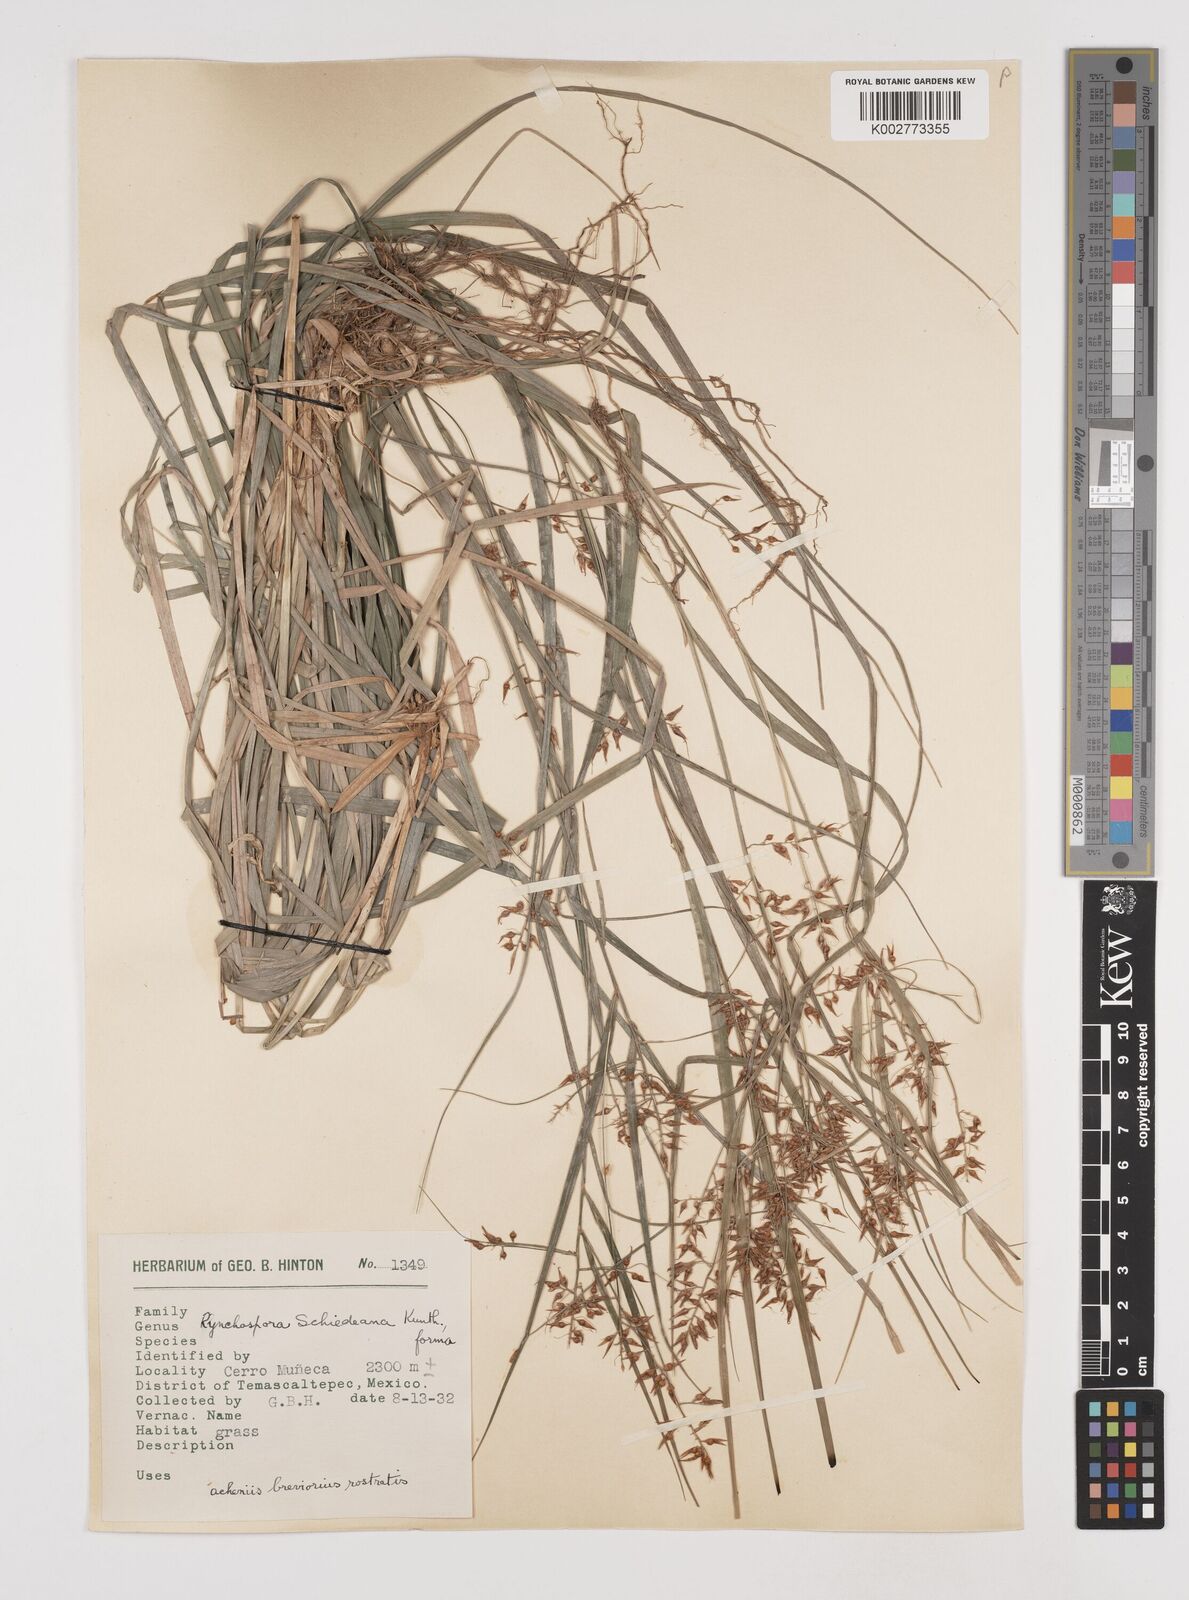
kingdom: Plantae
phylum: Tracheophyta
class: Liliopsida
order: Poales
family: Cyperaceae
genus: Rhynchospora
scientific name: Rhynchospora schiedeana
